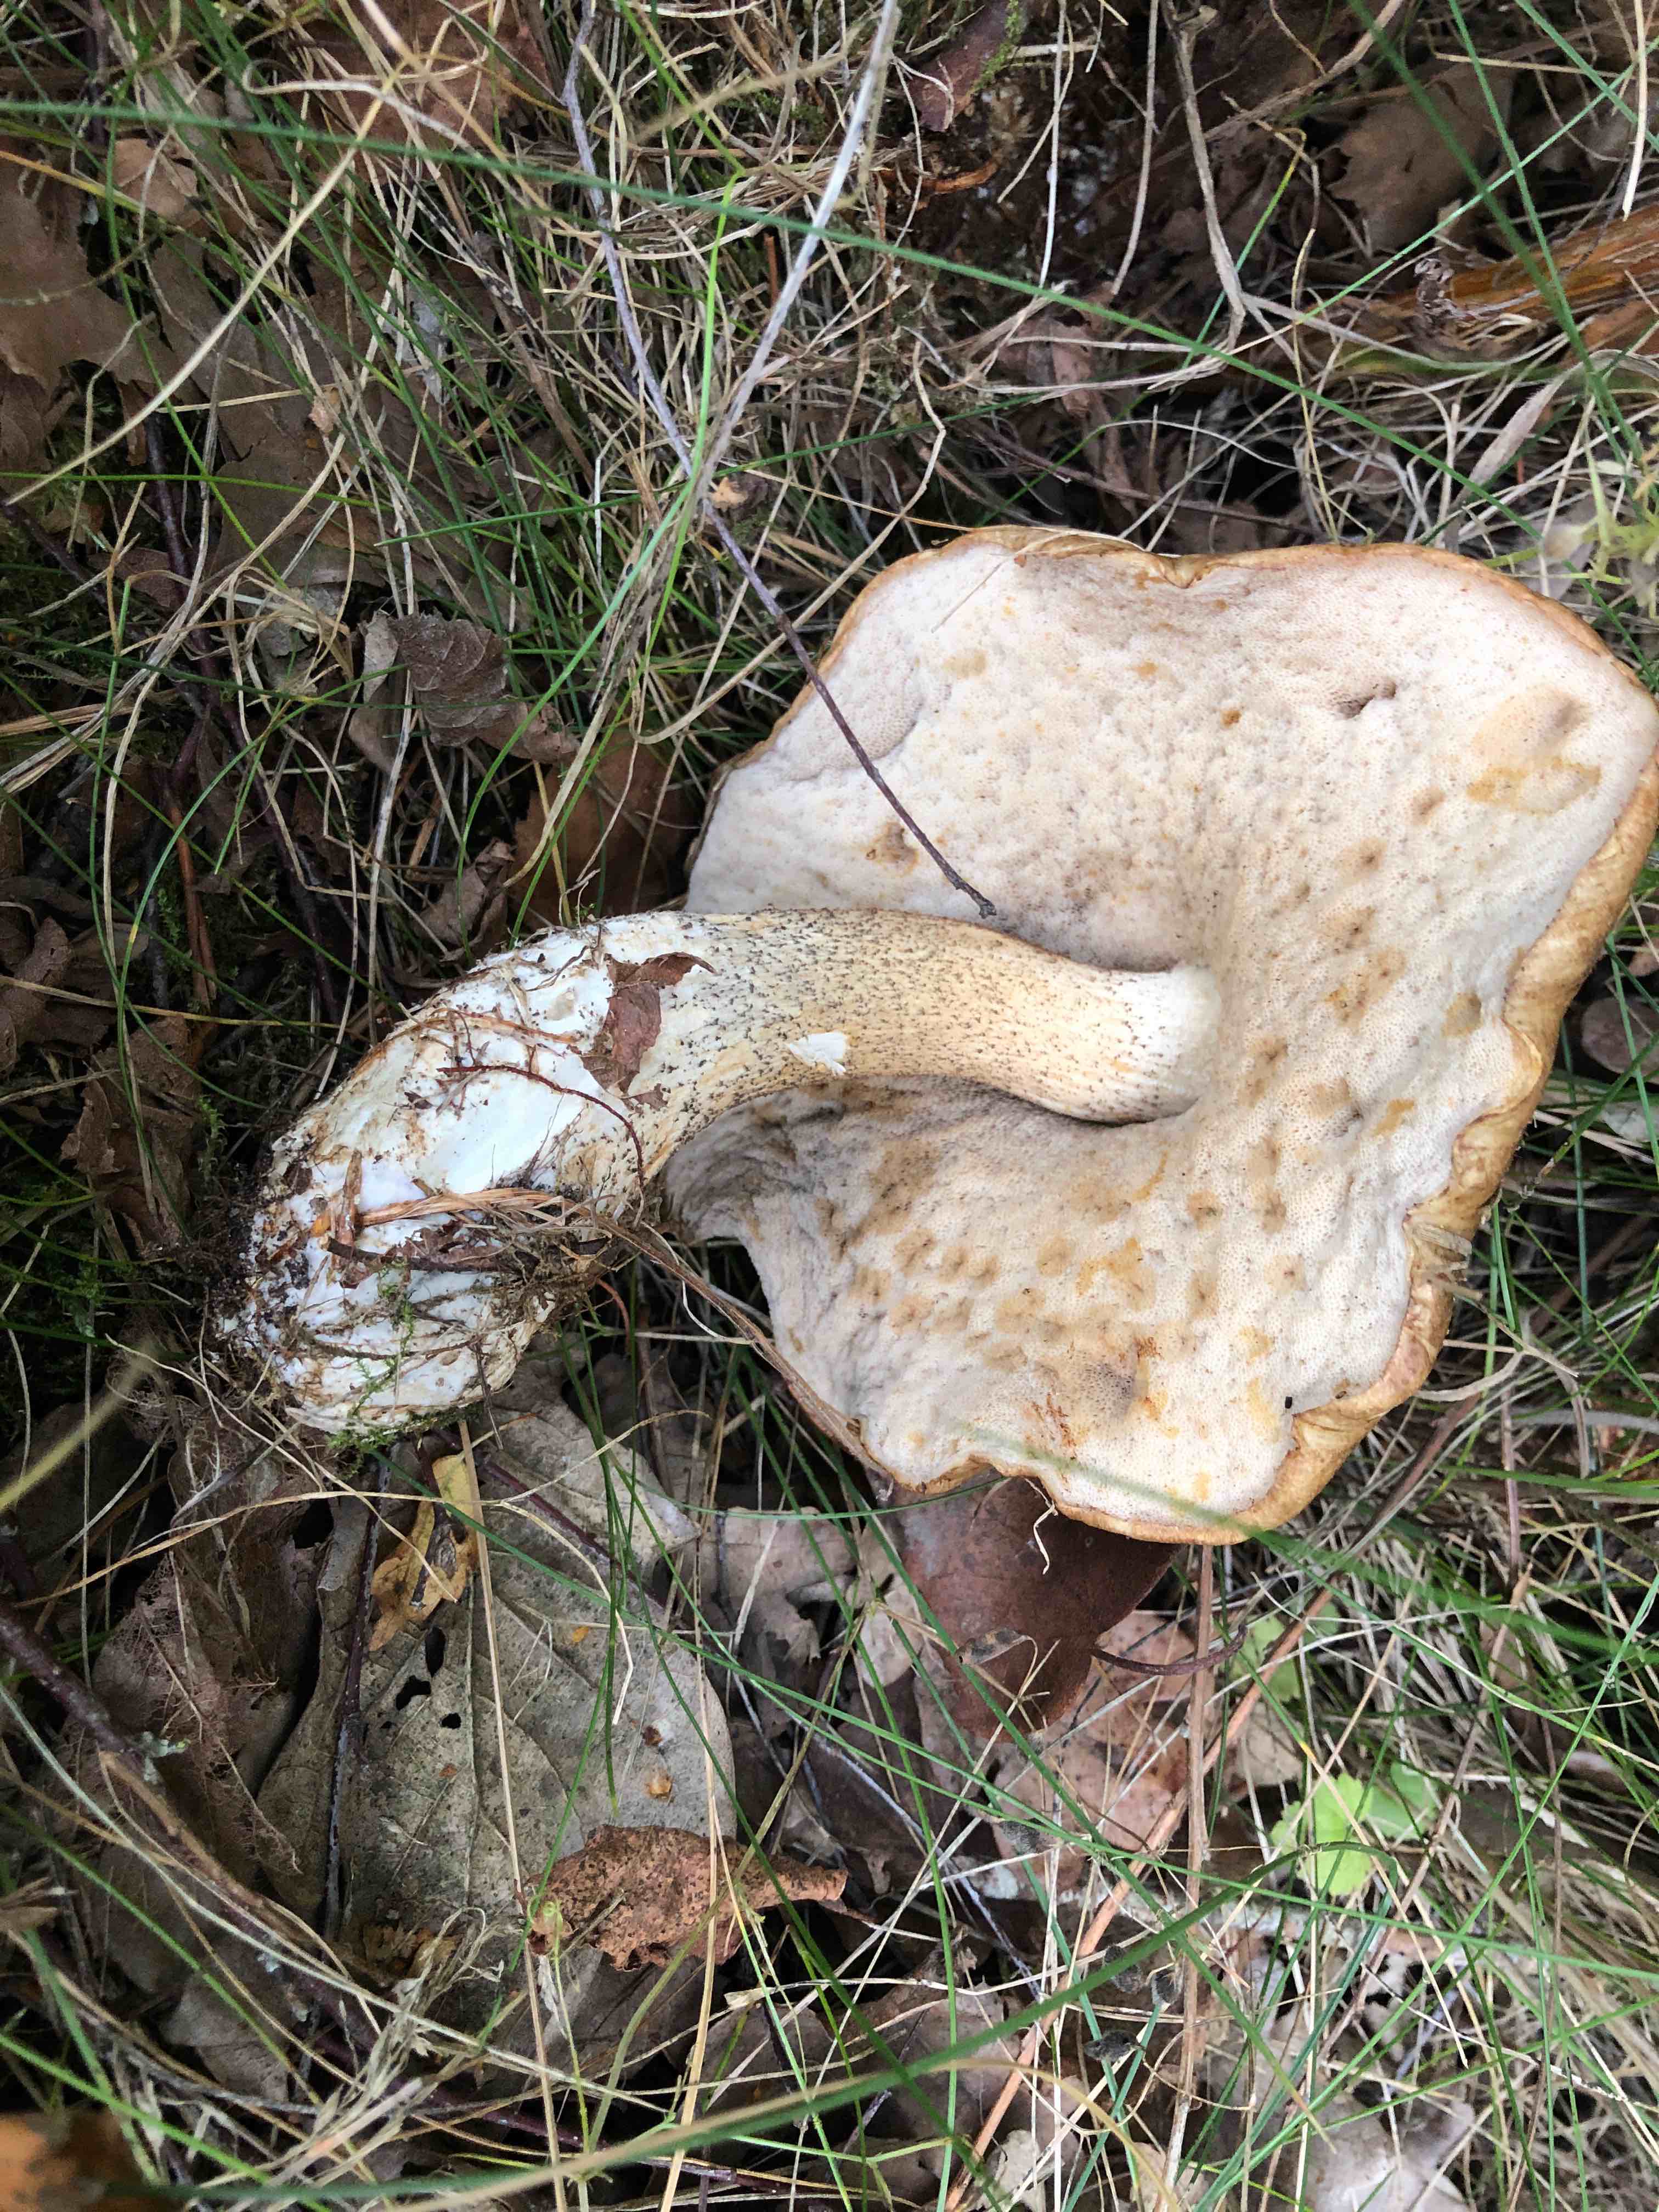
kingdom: Fungi
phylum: Basidiomycota
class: Agaricomycetes
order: Boletales
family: Boletaceae
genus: Leccinum
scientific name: Leccinum scabrum
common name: brun skælrørhat
